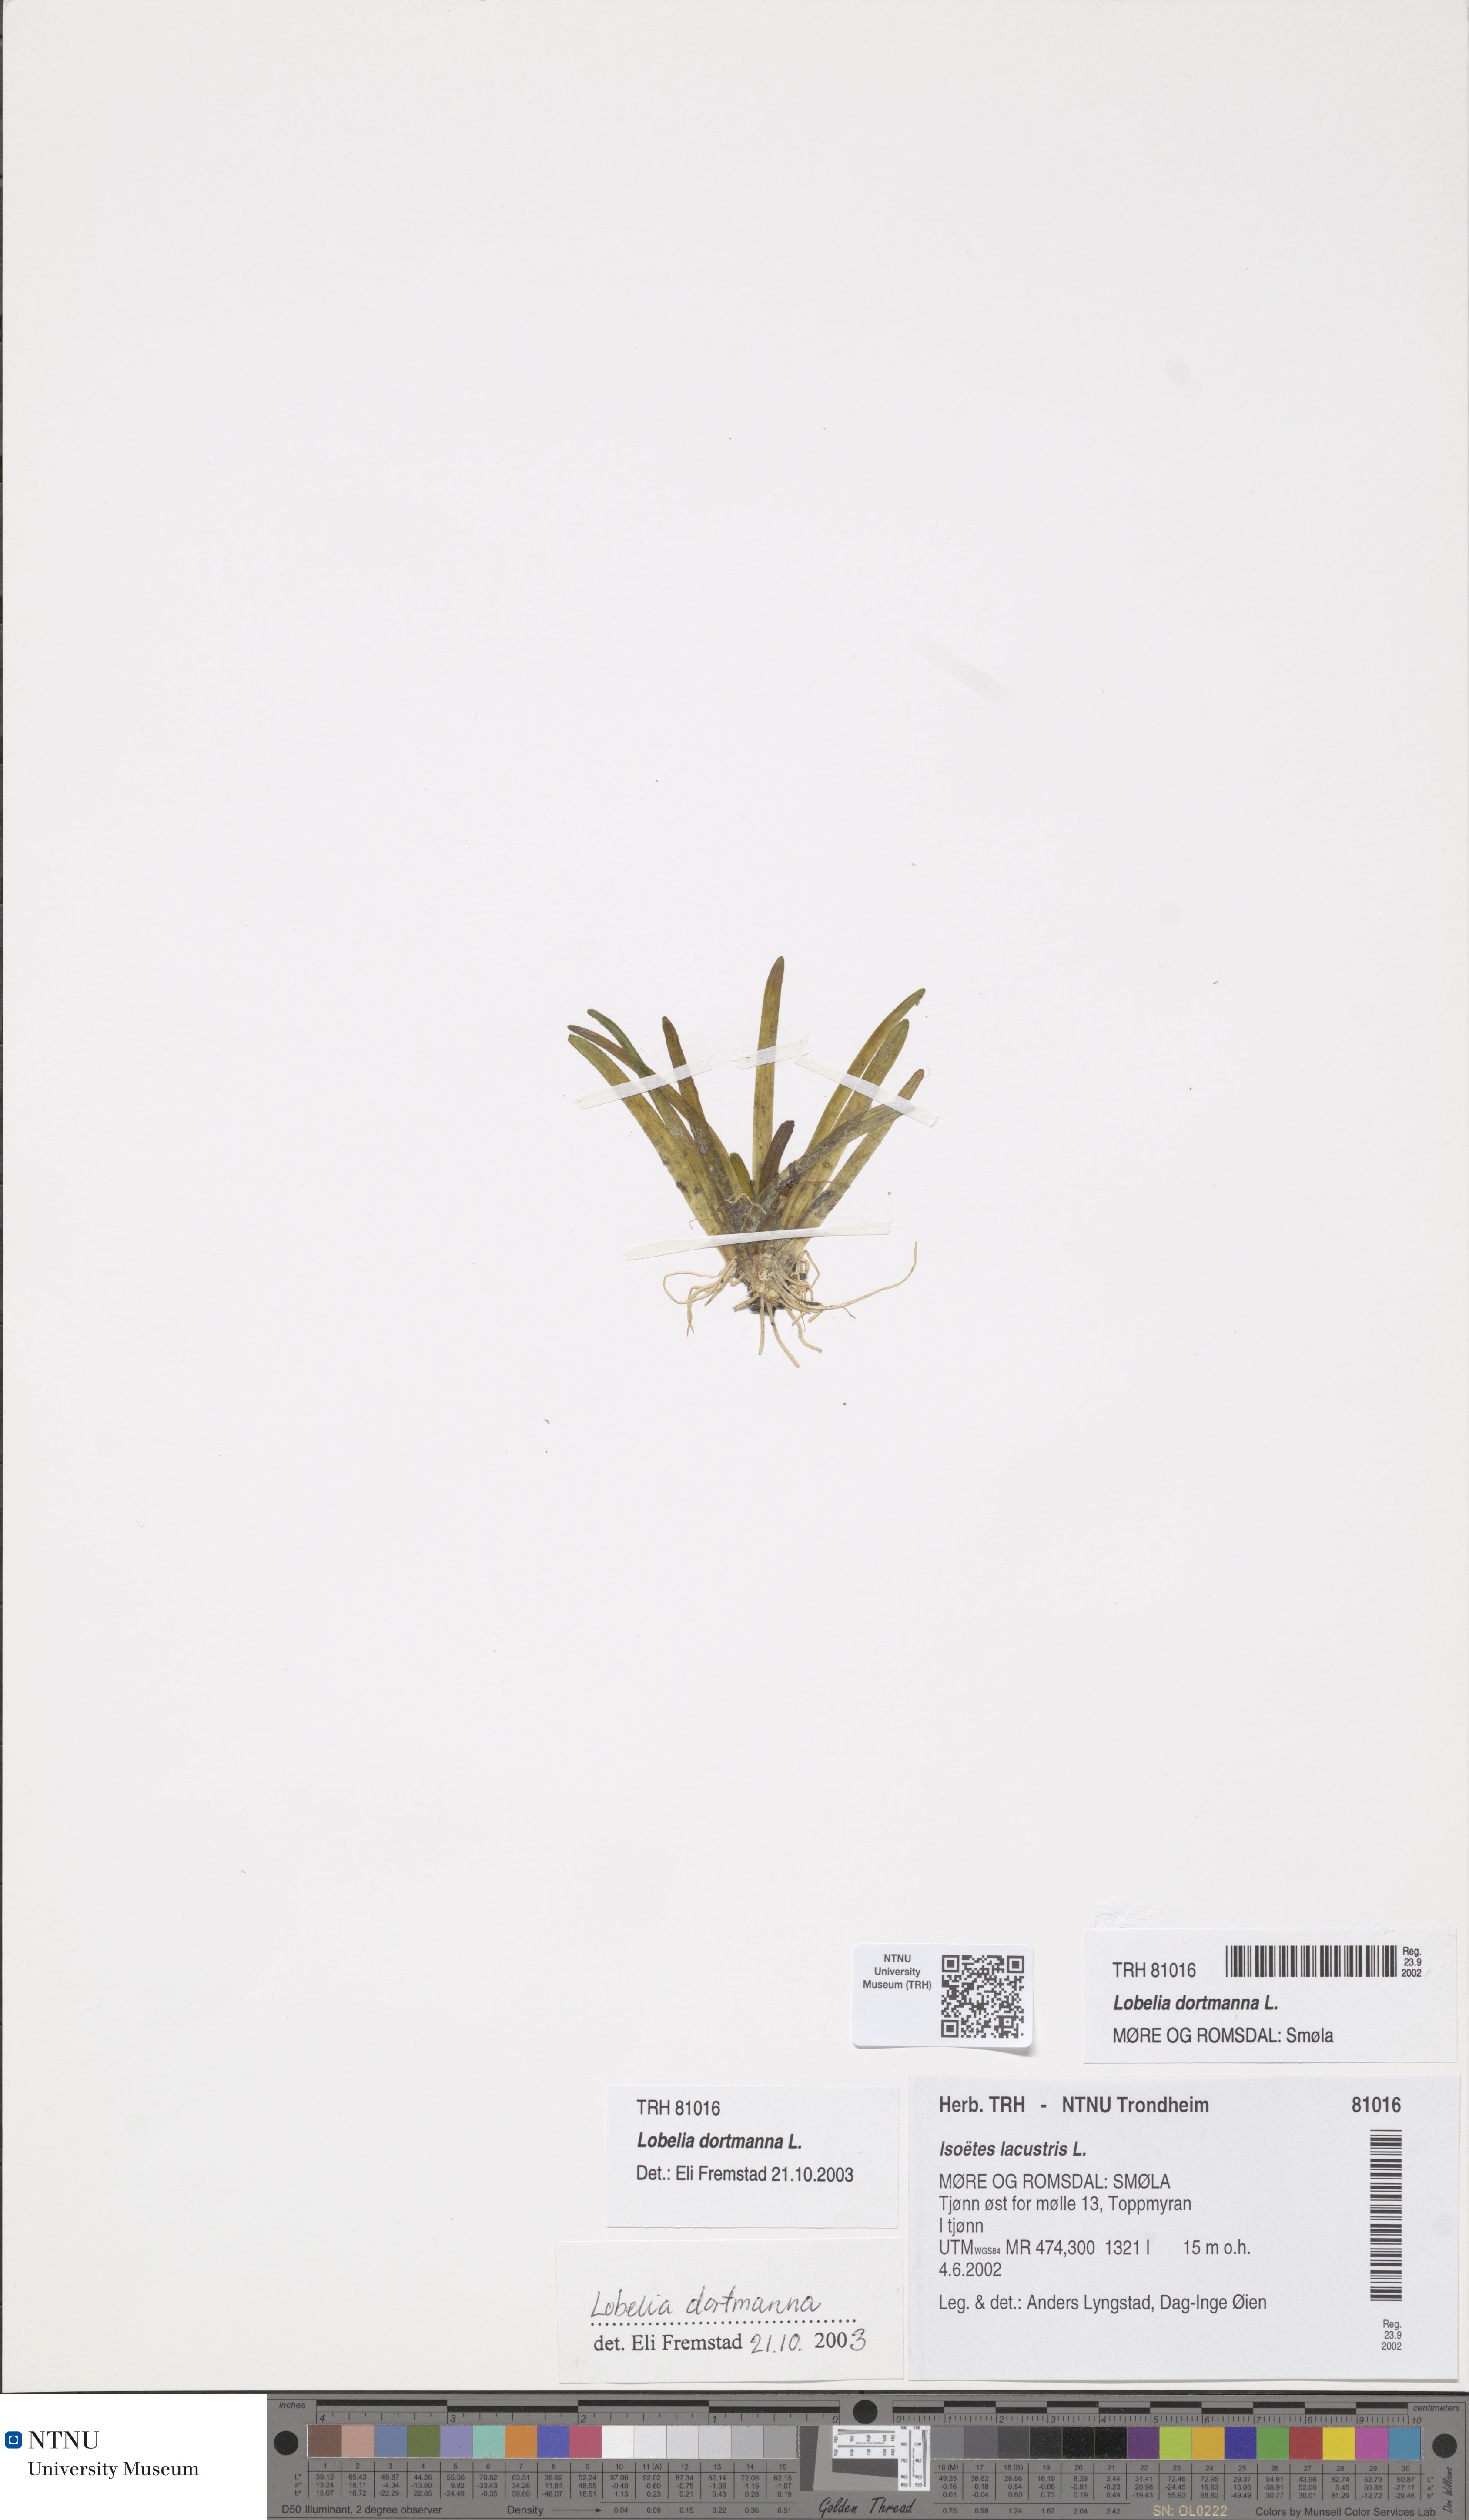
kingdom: Plantae
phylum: Tracheophyta
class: Magnoliopsida
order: Asterales
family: Campanulaceae
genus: Lobelia
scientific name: Lobelia dortmanna
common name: Water lobelia
